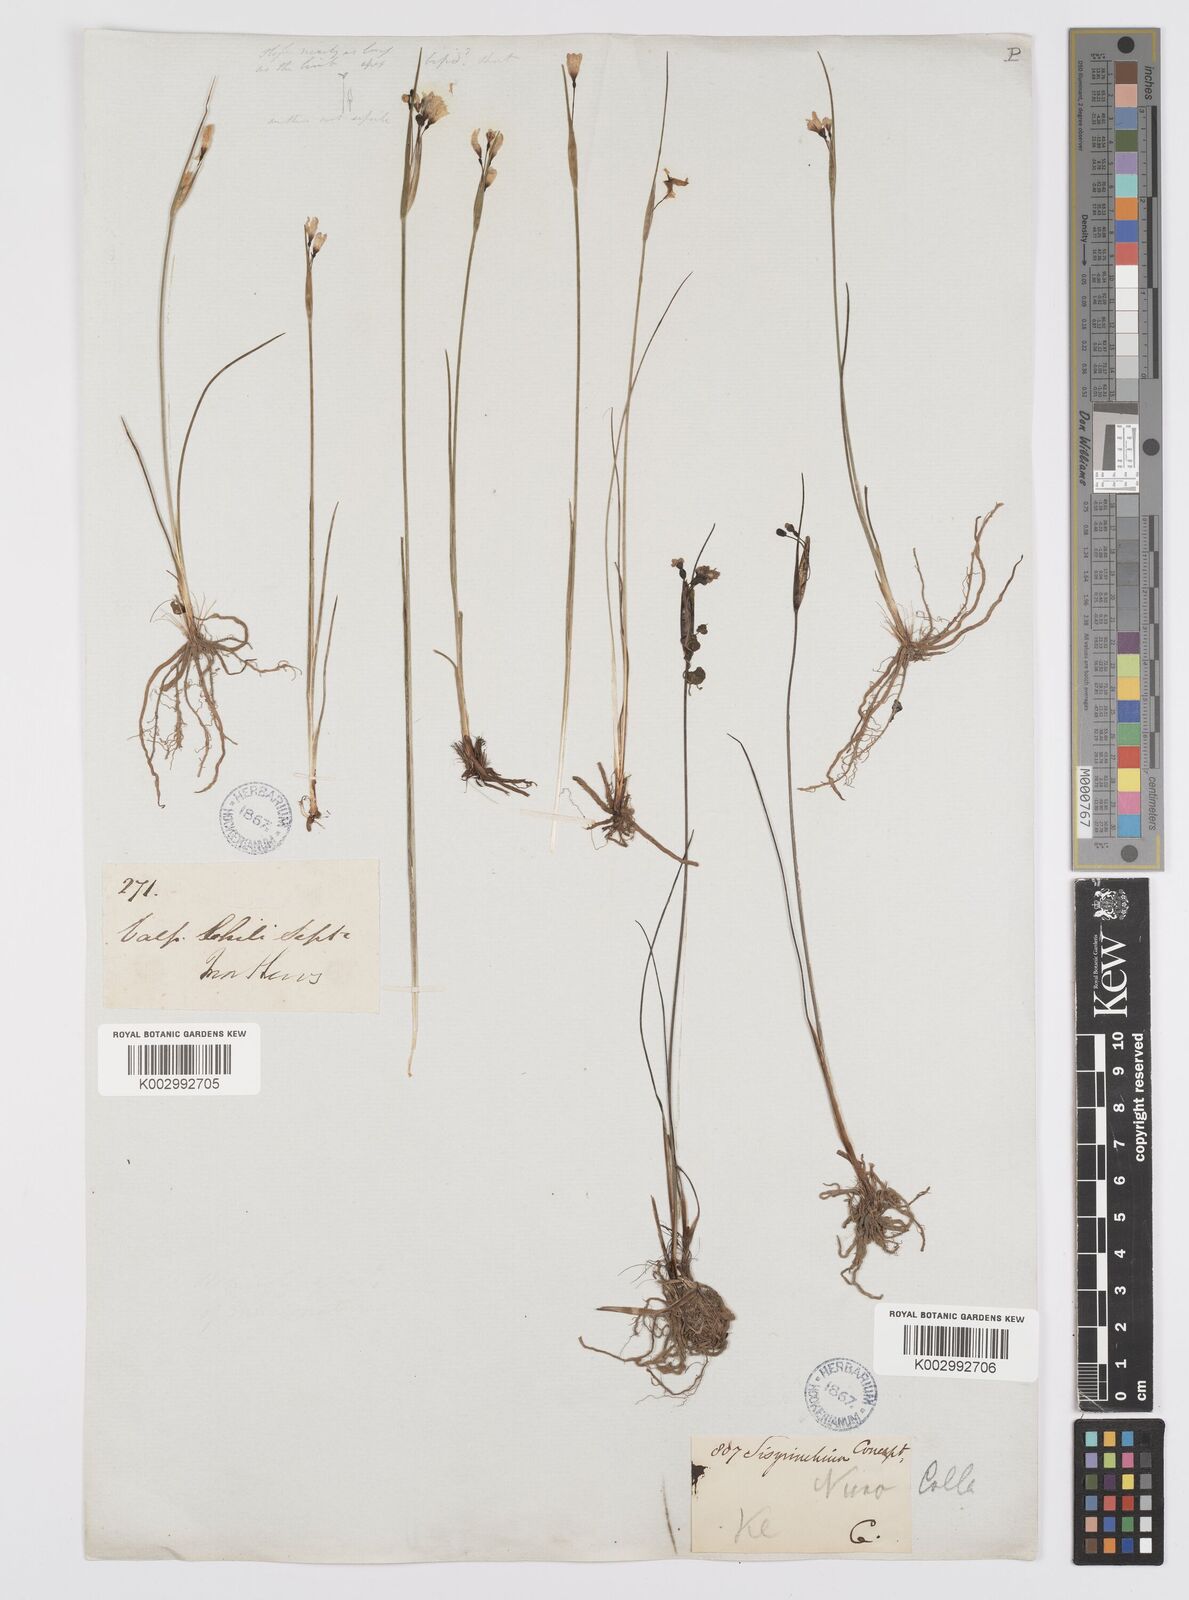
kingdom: Plantae
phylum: Tracheophyta
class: Liliopsida
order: Asparagales
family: Iridaceae
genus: Olsynium
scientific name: Olsynium scirpoideum
